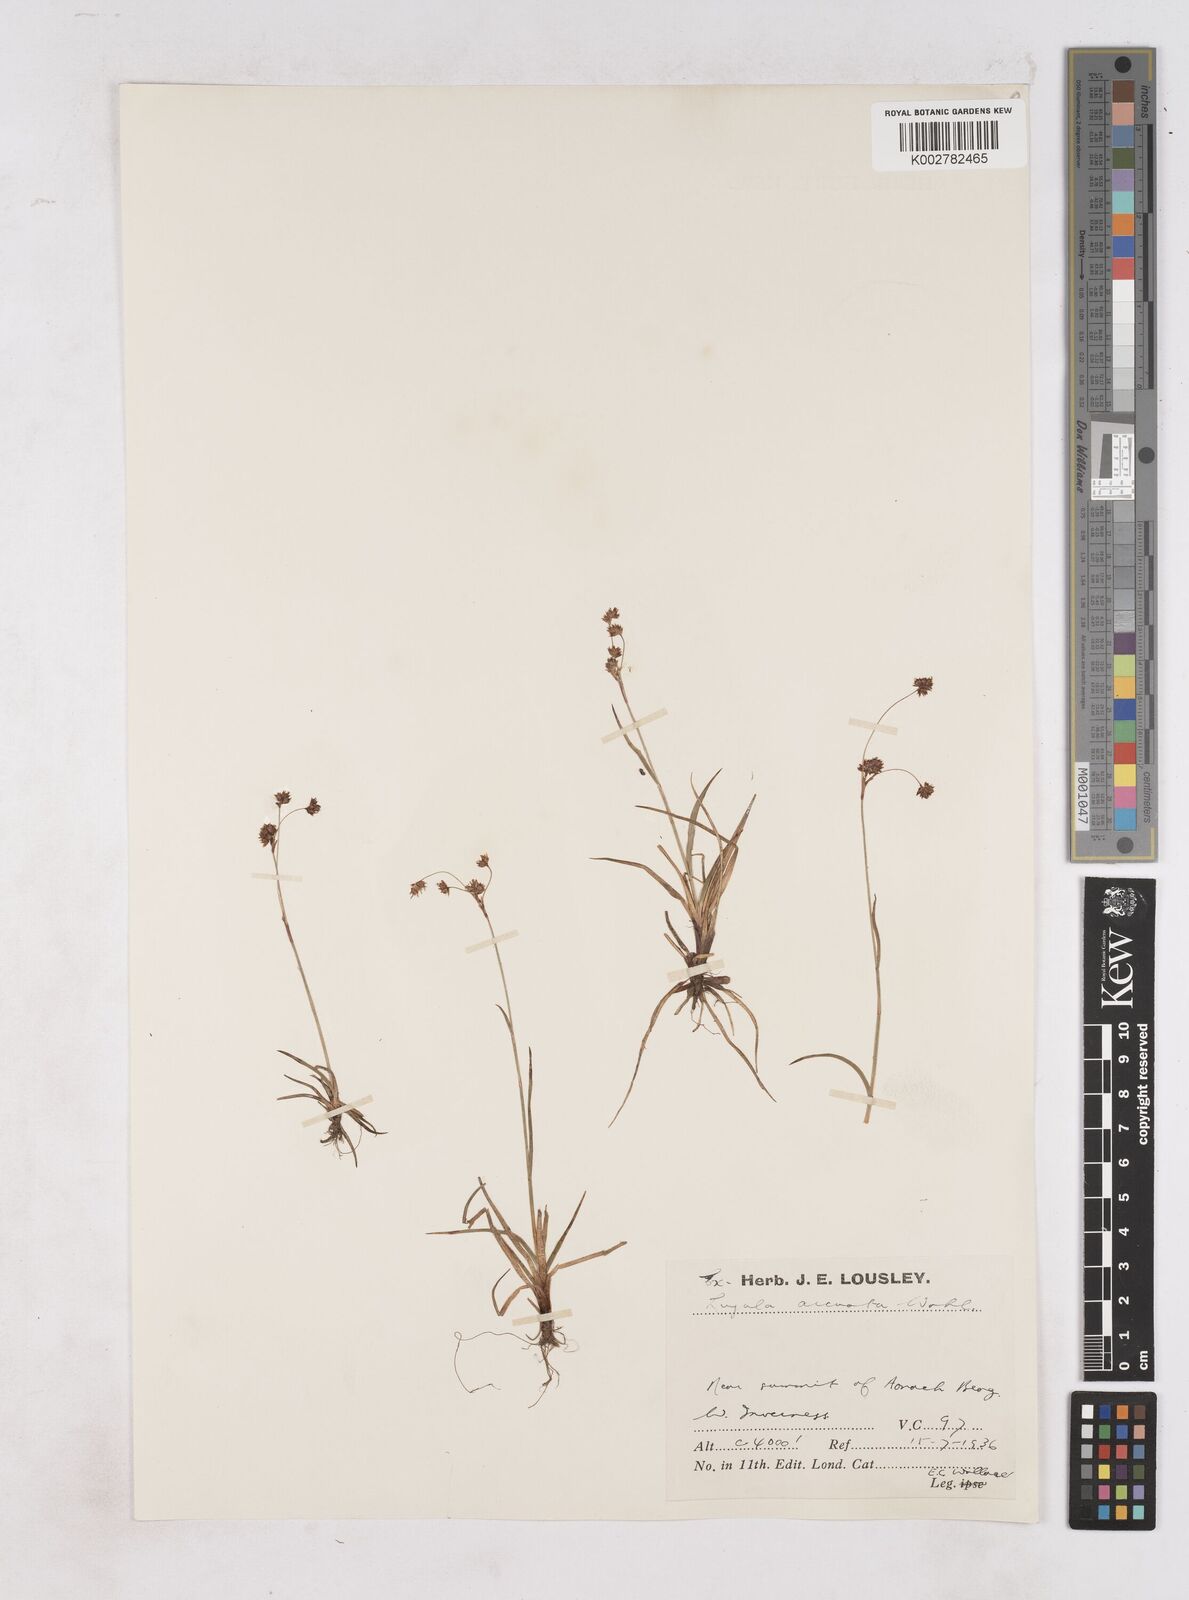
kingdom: Plantae
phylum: Tracheophyta
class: Liliopsida
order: Poales
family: Juncaceae
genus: Luzula
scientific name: Luzula arcuata
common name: Curved wood-rush
